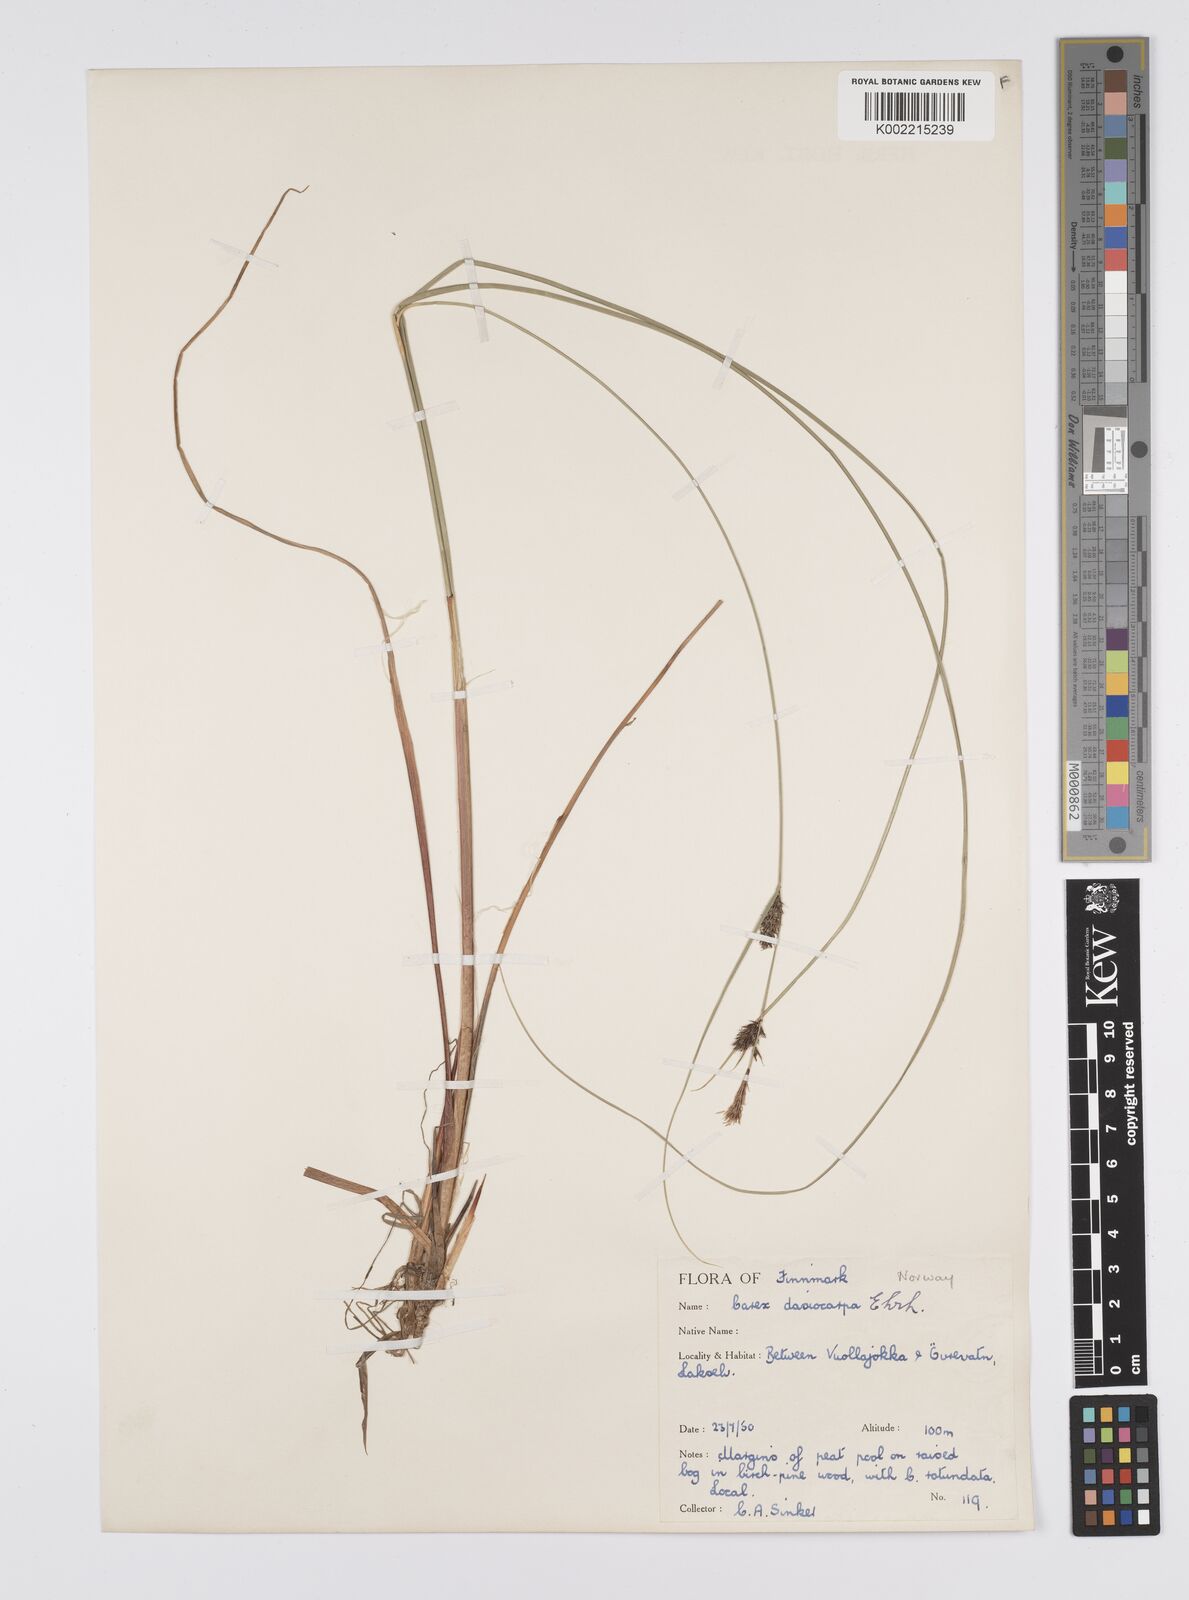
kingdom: Plantae
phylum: Tracheophyta
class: Liliopsida
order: Poales
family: Cyperaceae
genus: Carex
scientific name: Carex lasiocarpa
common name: Slender sedge
